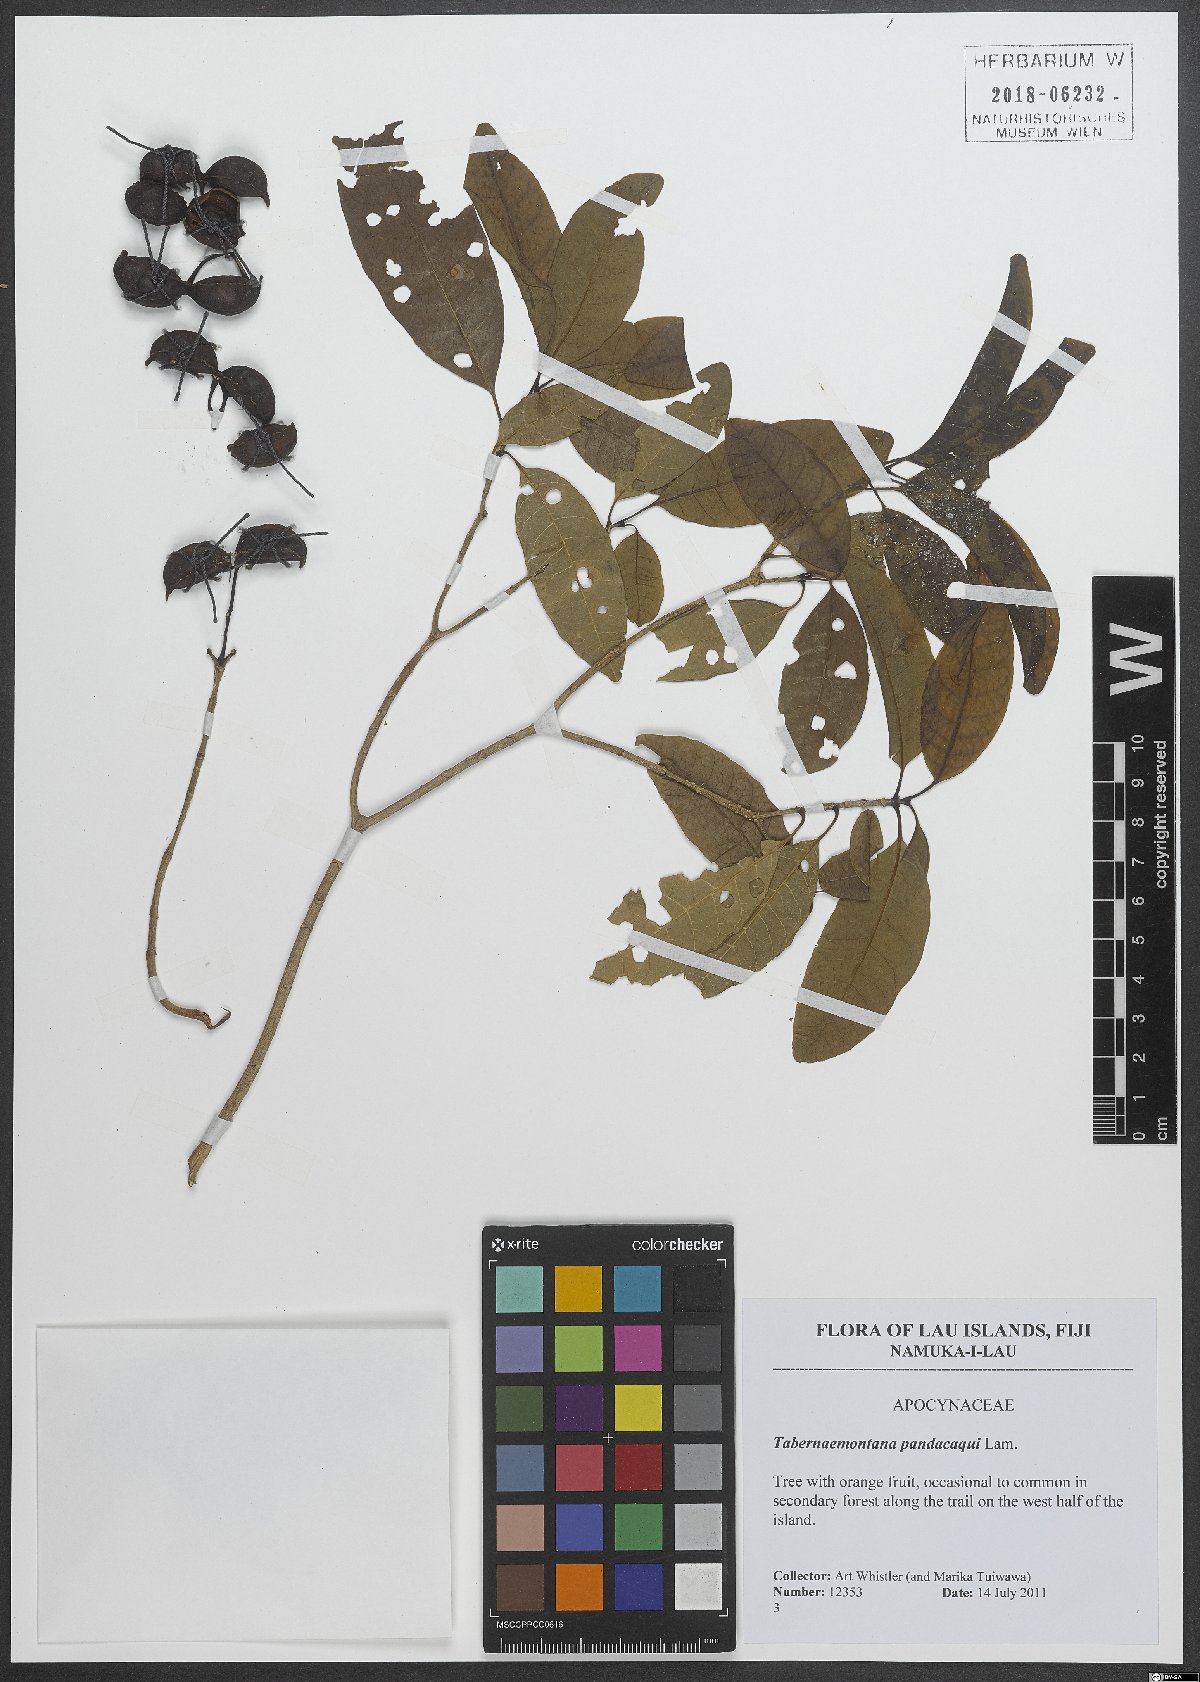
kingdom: Plantae
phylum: Tracheophyta
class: Magnoliopsida
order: Gentianales
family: Apocynaceae
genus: Tabernaemontana
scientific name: Tabernaemontana pandacaqui
